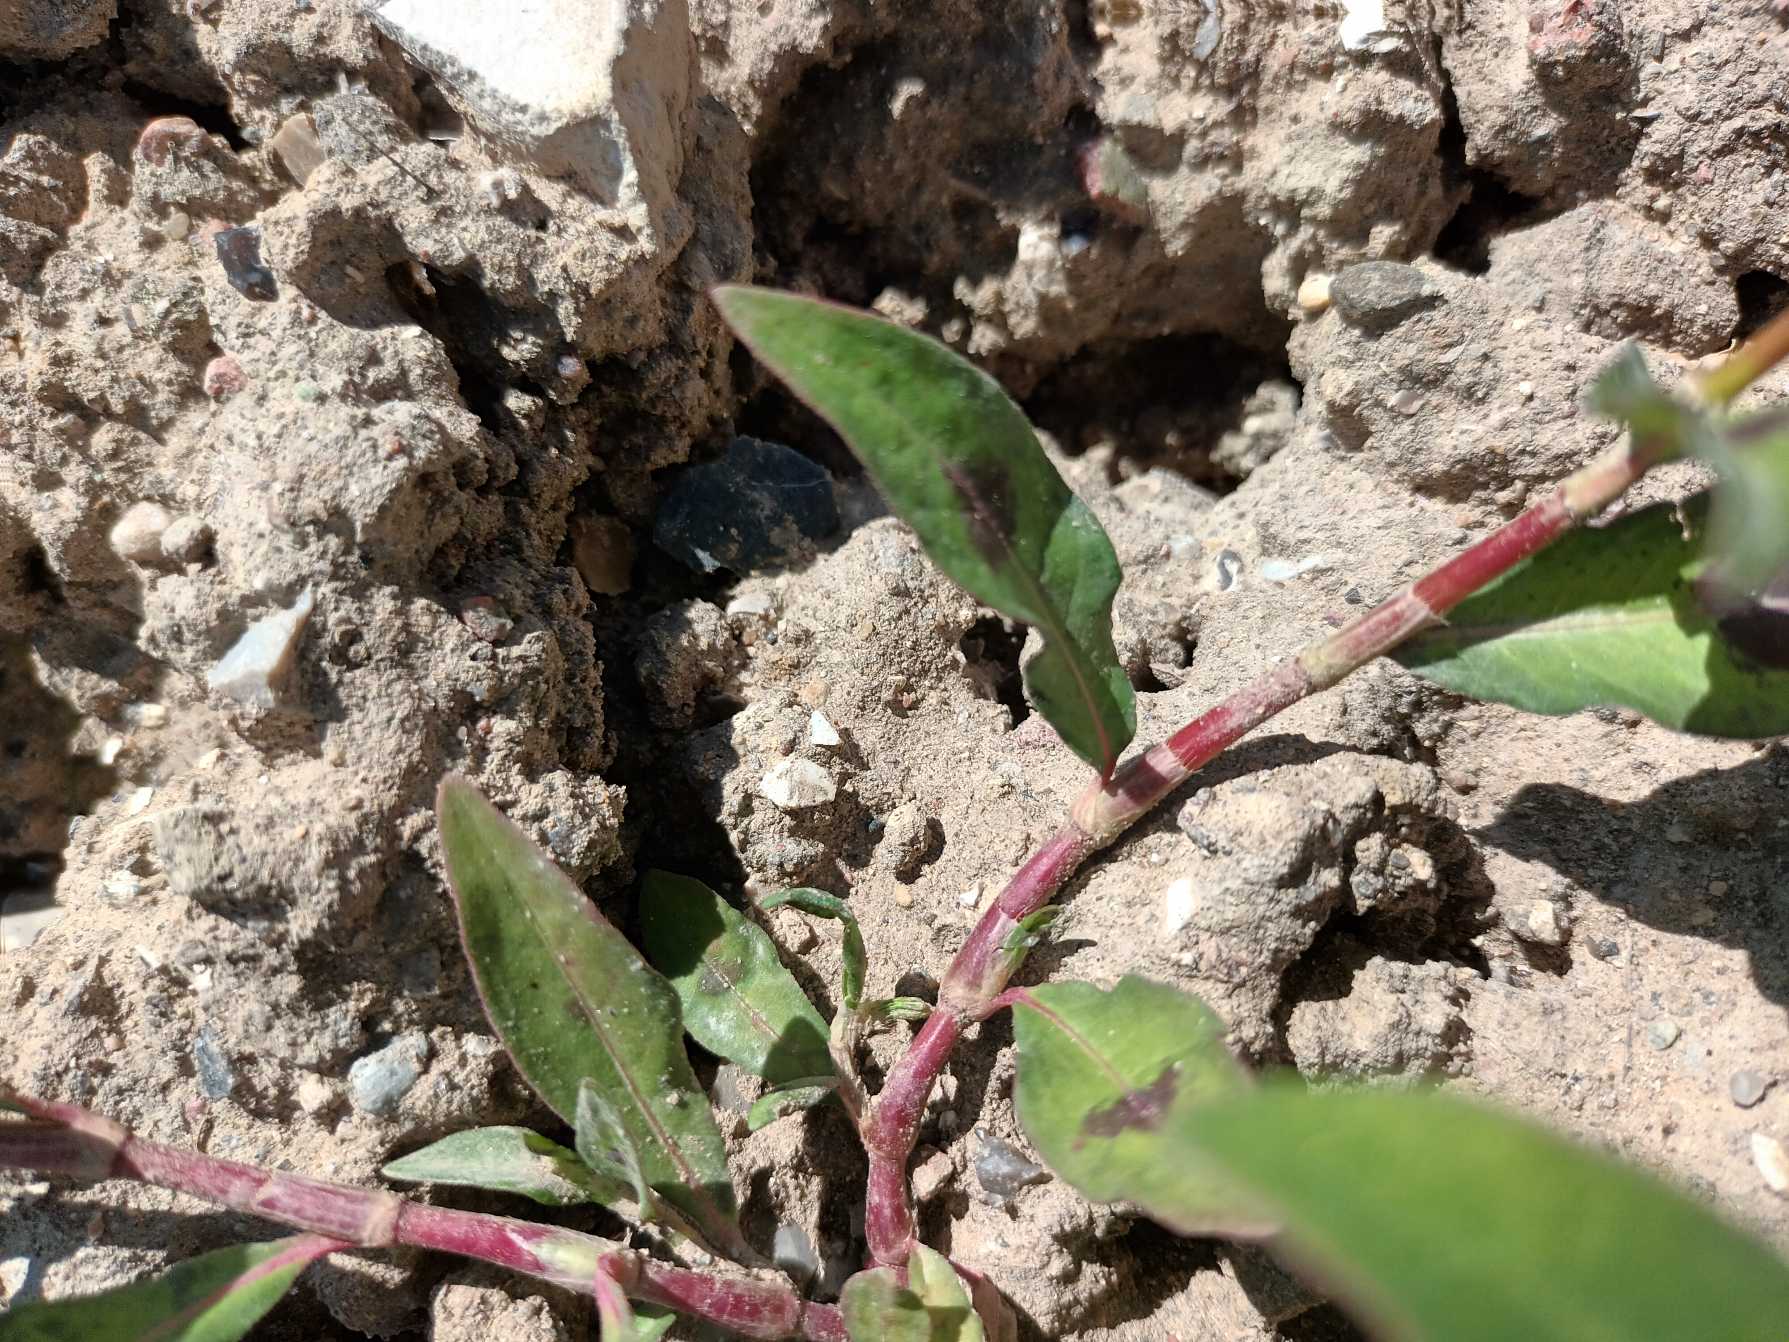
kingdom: Plantae
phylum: Tracheophyta
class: Magnoliopsida
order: Caryophyllales
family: Polygonaceae
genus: Persicaria
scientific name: Persicaria maculosa
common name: Fersken-pileurt
